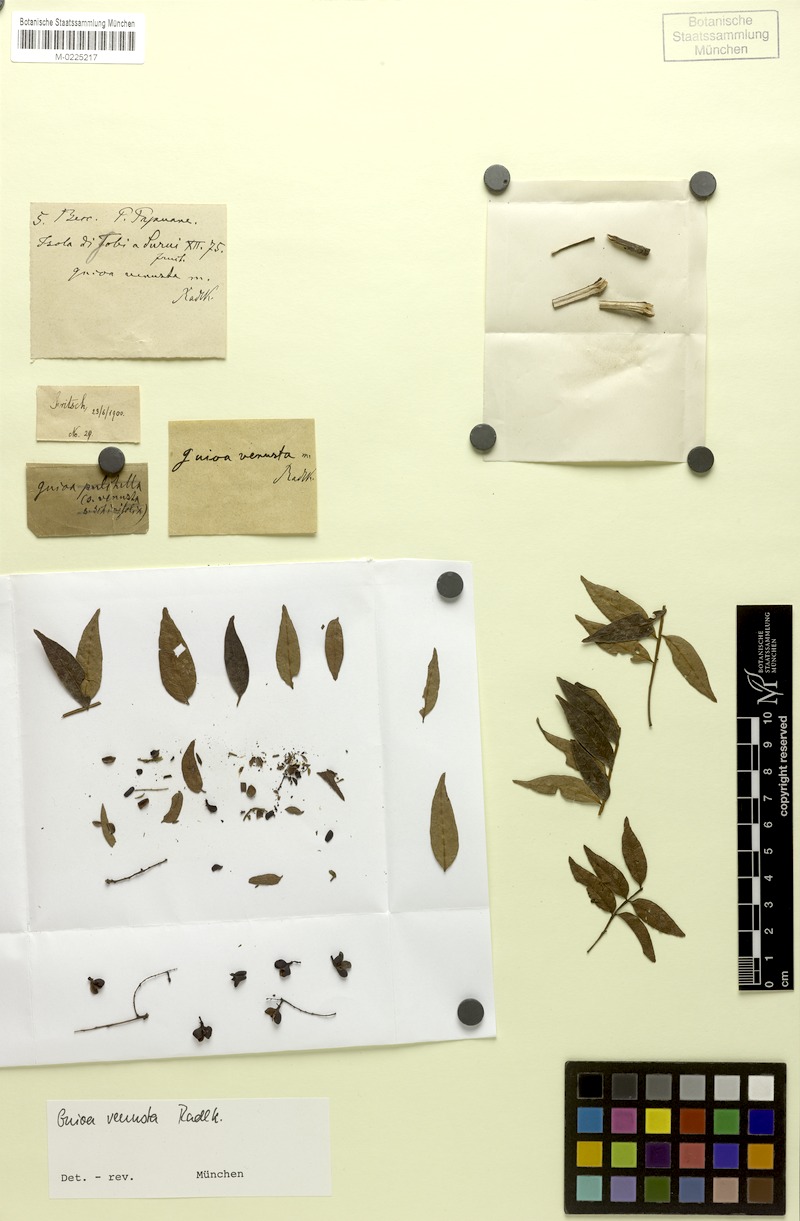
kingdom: Plantae
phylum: Tracheophyta
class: Magnoliopsida
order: Sapindales
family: Sapindaceae
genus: Guioa
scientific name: Guioa venusta
